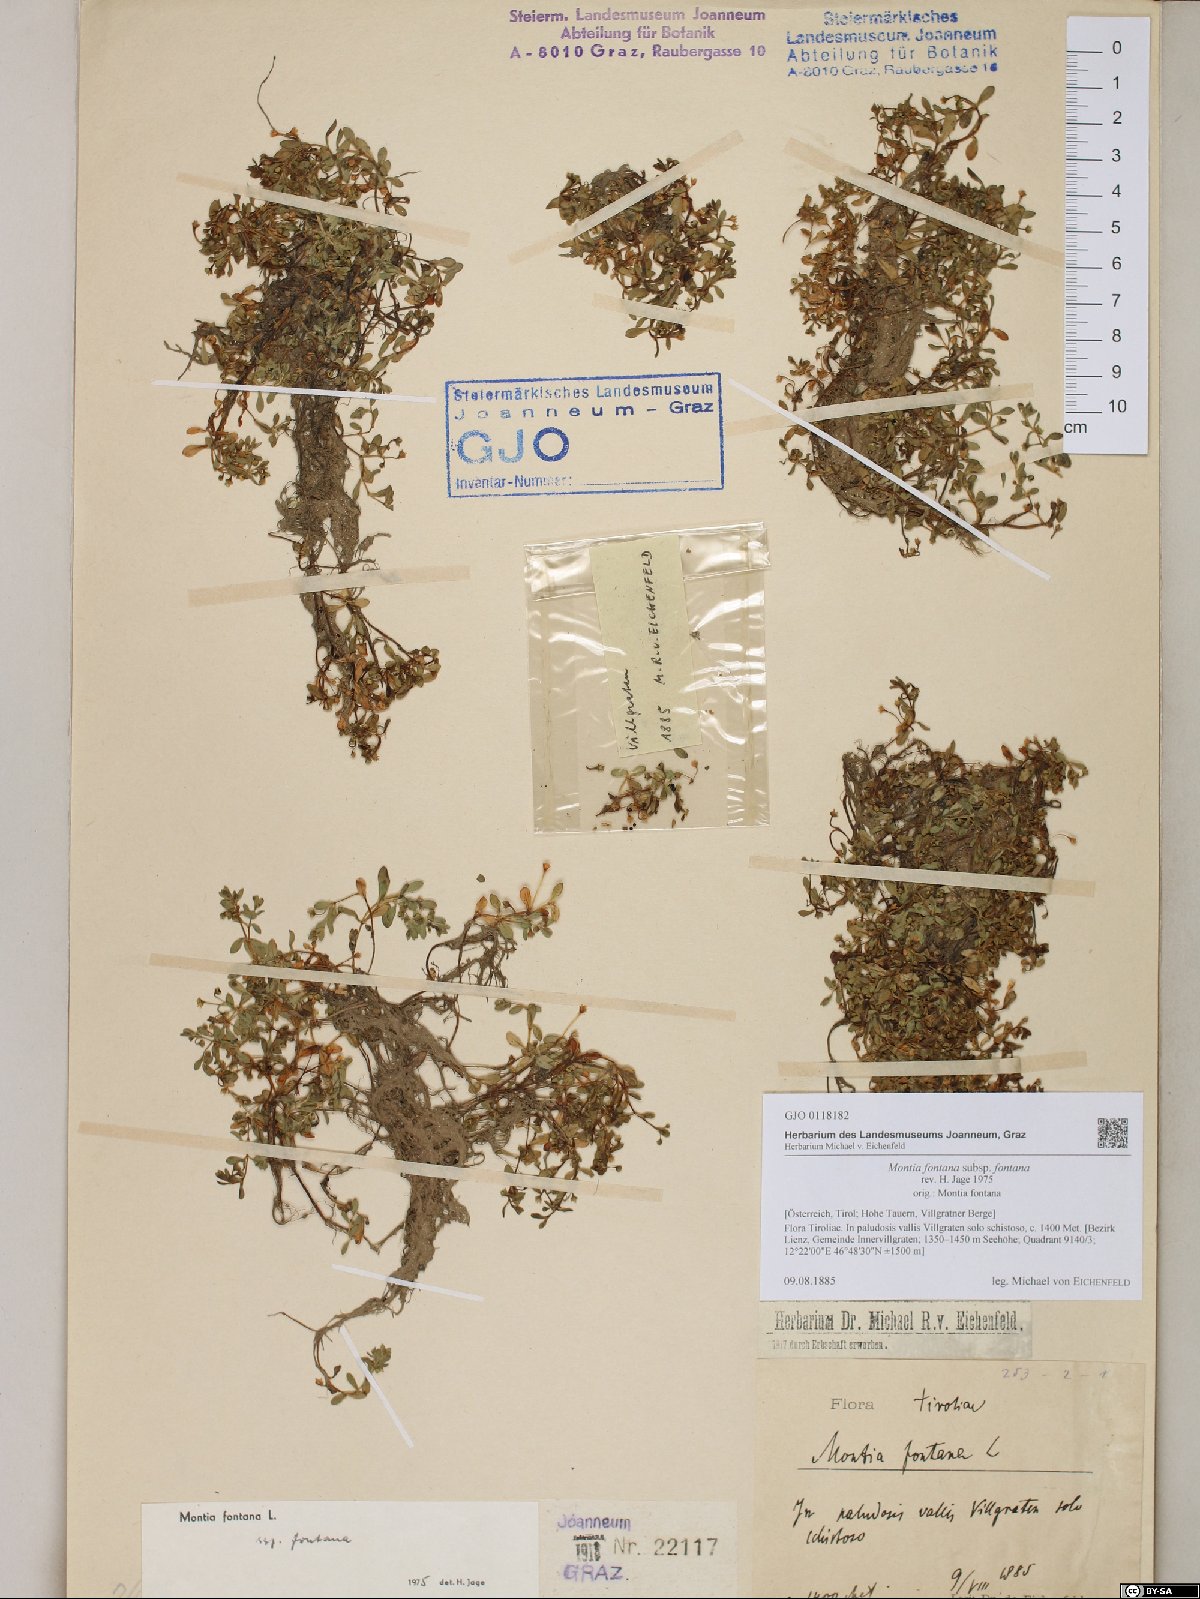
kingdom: Plantae
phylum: Tracheophyta
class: Magnoliopsida
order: Caryophyllales
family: Montiaceae
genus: Montia
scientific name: Montia fontana
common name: Blinks
